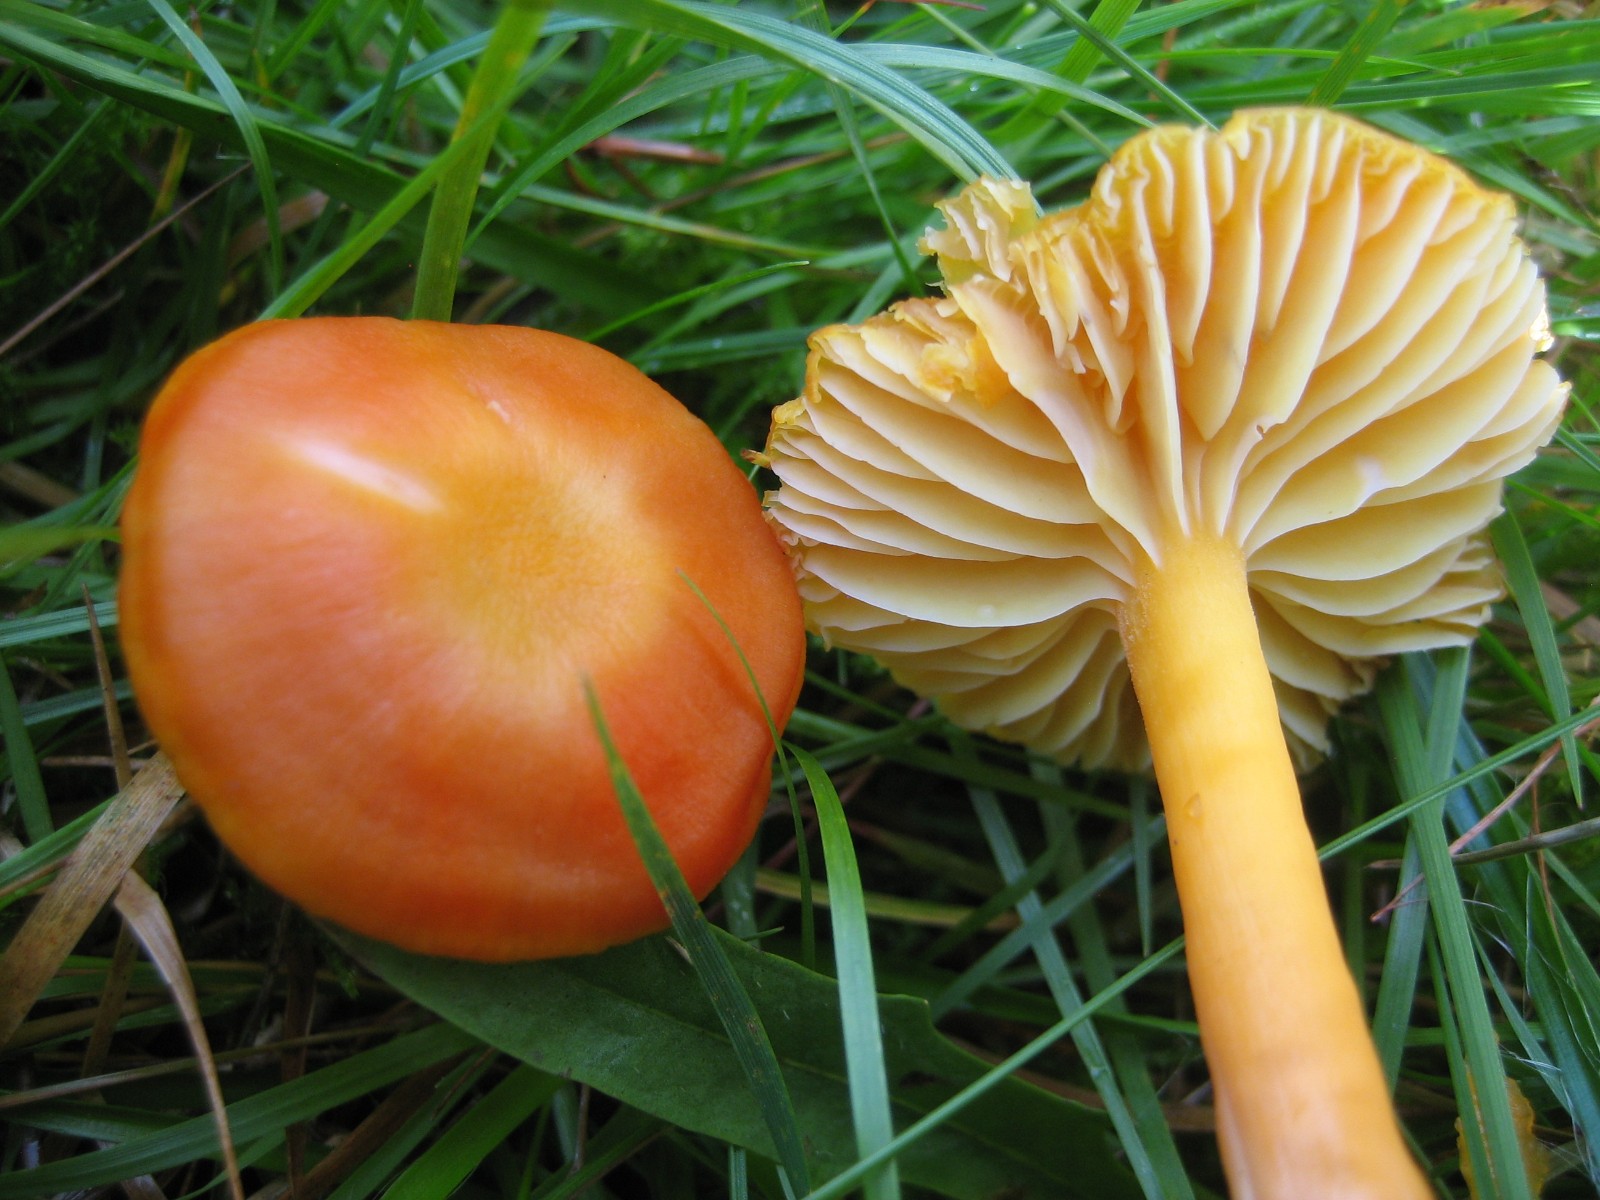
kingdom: Fungi
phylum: Basidiomycota
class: Agaricomycetes
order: Agaricales
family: Hygrophoraceae
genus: Hygrocybe
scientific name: Hygrocybe reidii
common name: honning-vokshat
